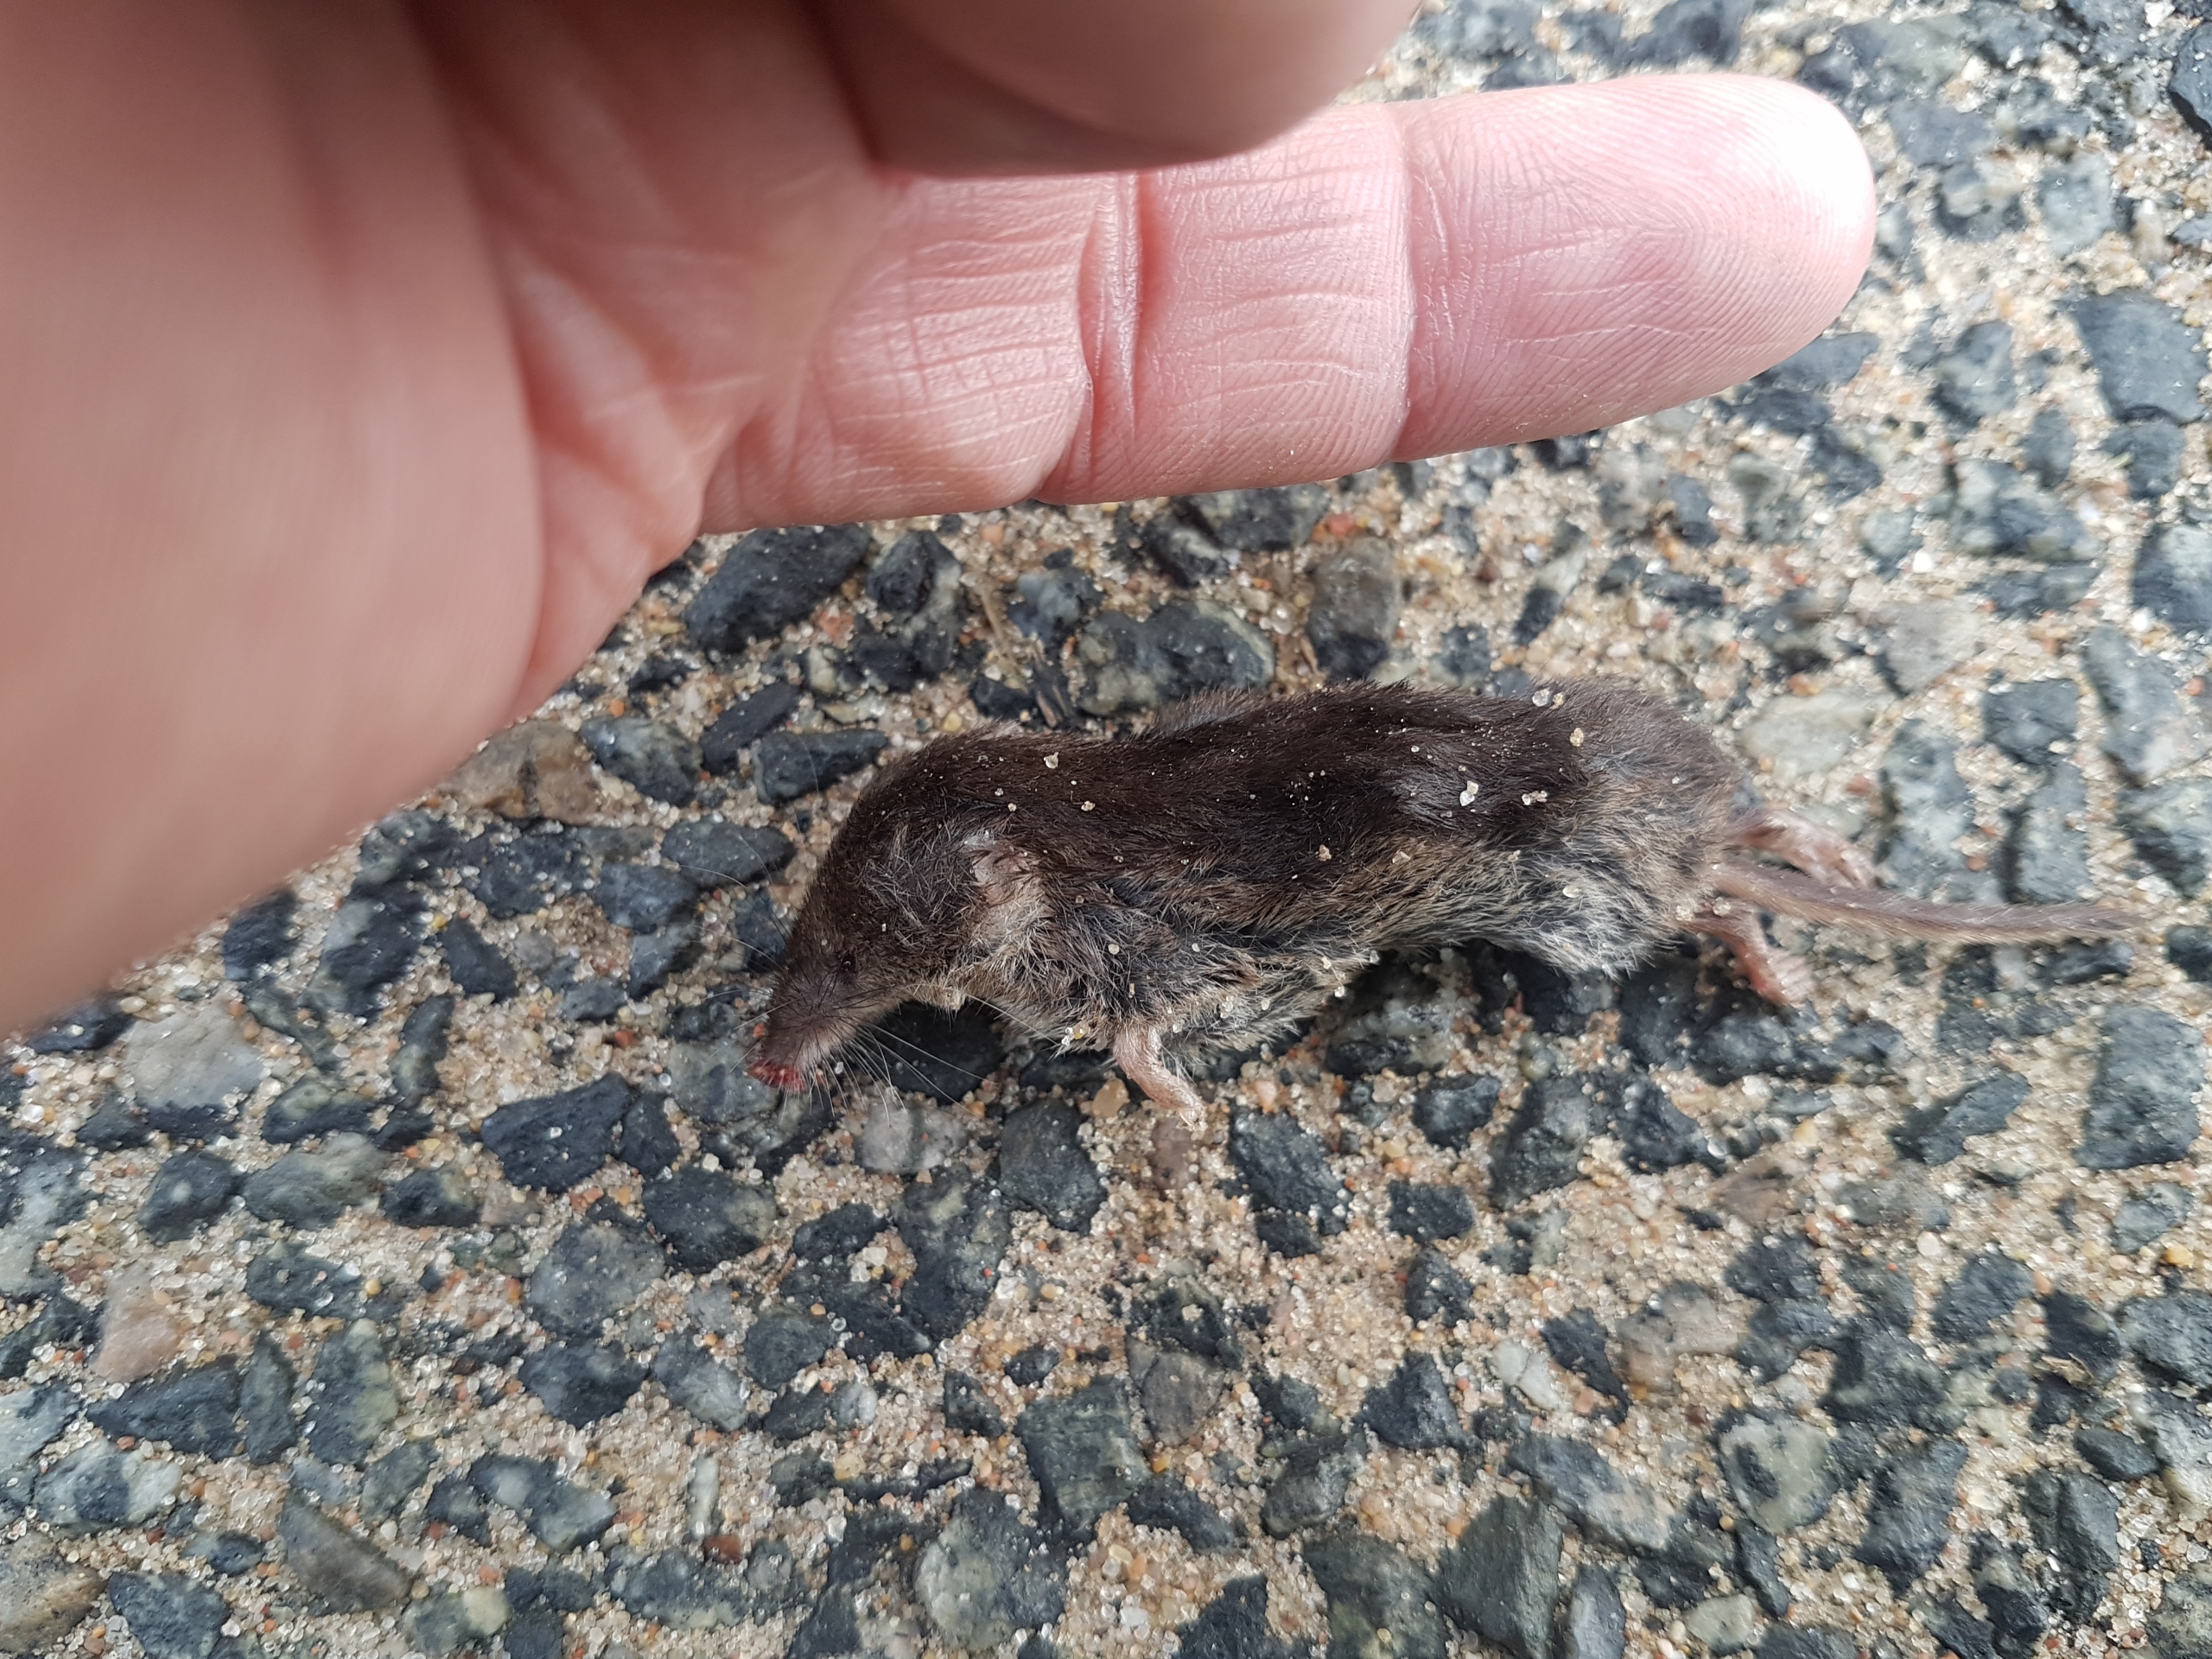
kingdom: Animalia
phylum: Chordata
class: Mammalia
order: Soricomorpha
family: Soricidae
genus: Sorex
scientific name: Sorex araneus
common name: Almindelig spidsmus
